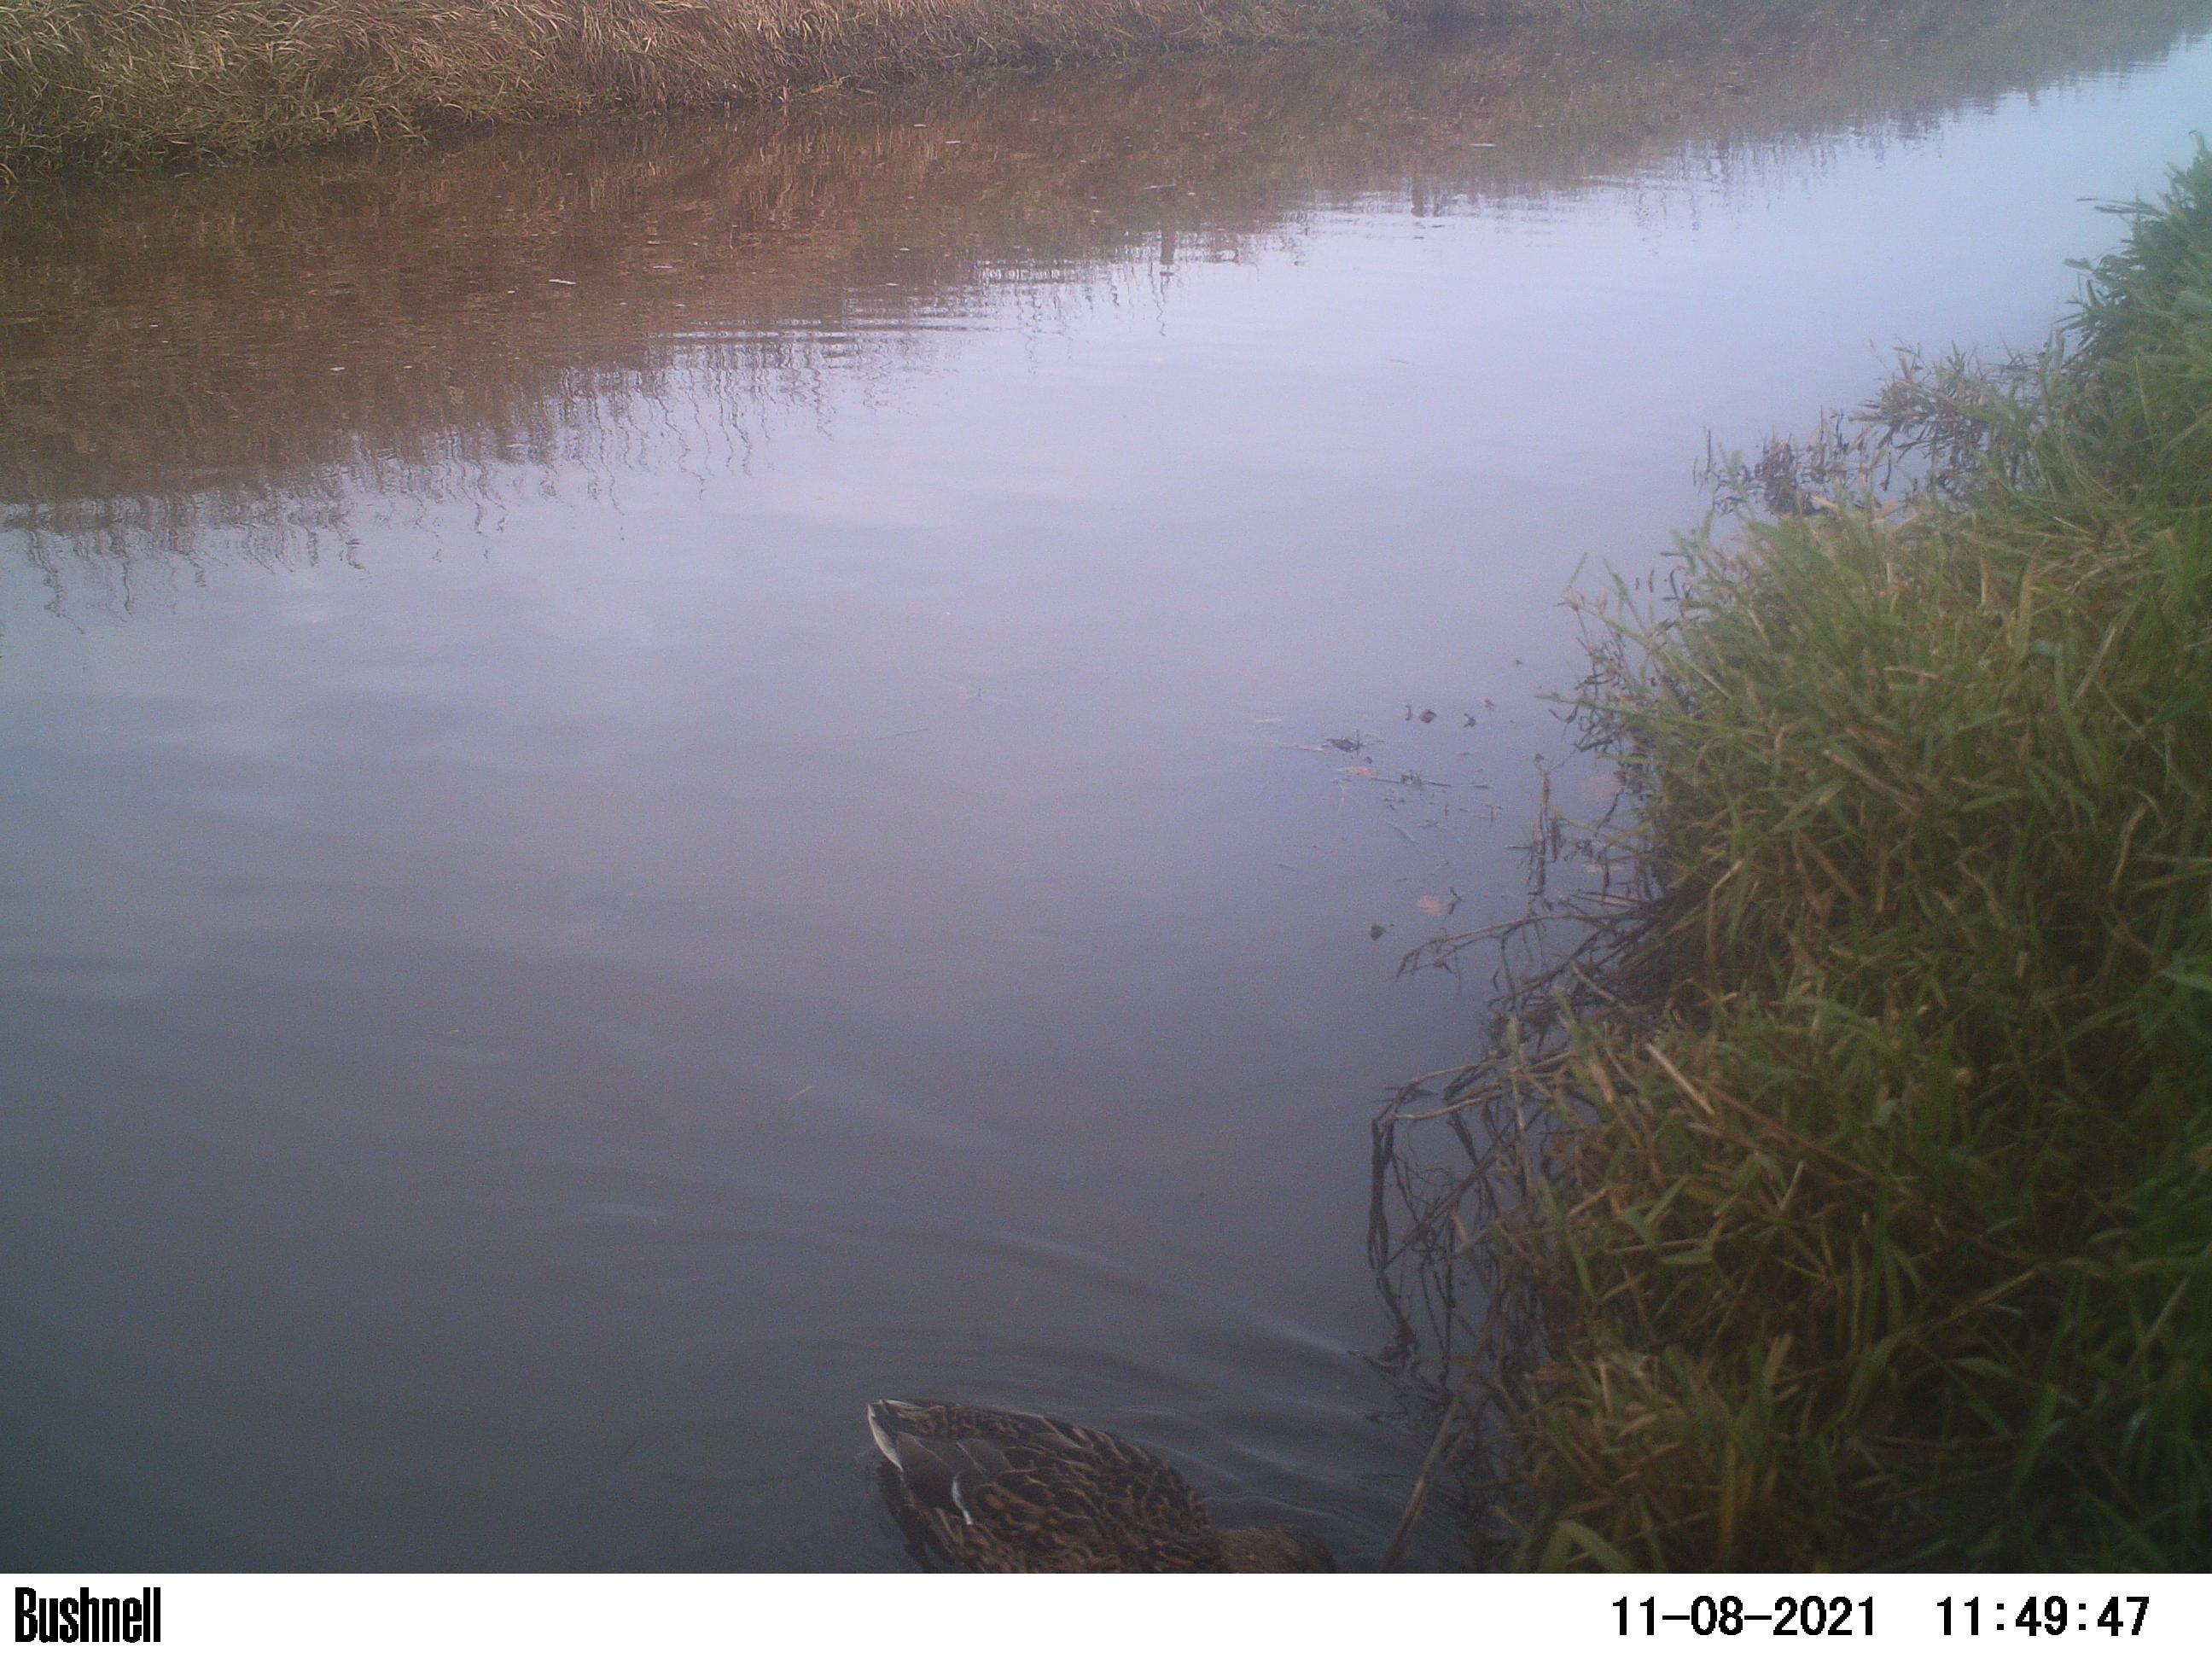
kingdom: Animalia
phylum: Chordata
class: Aves
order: Anseriformes
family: Anatidae
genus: Anas
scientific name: Anas
